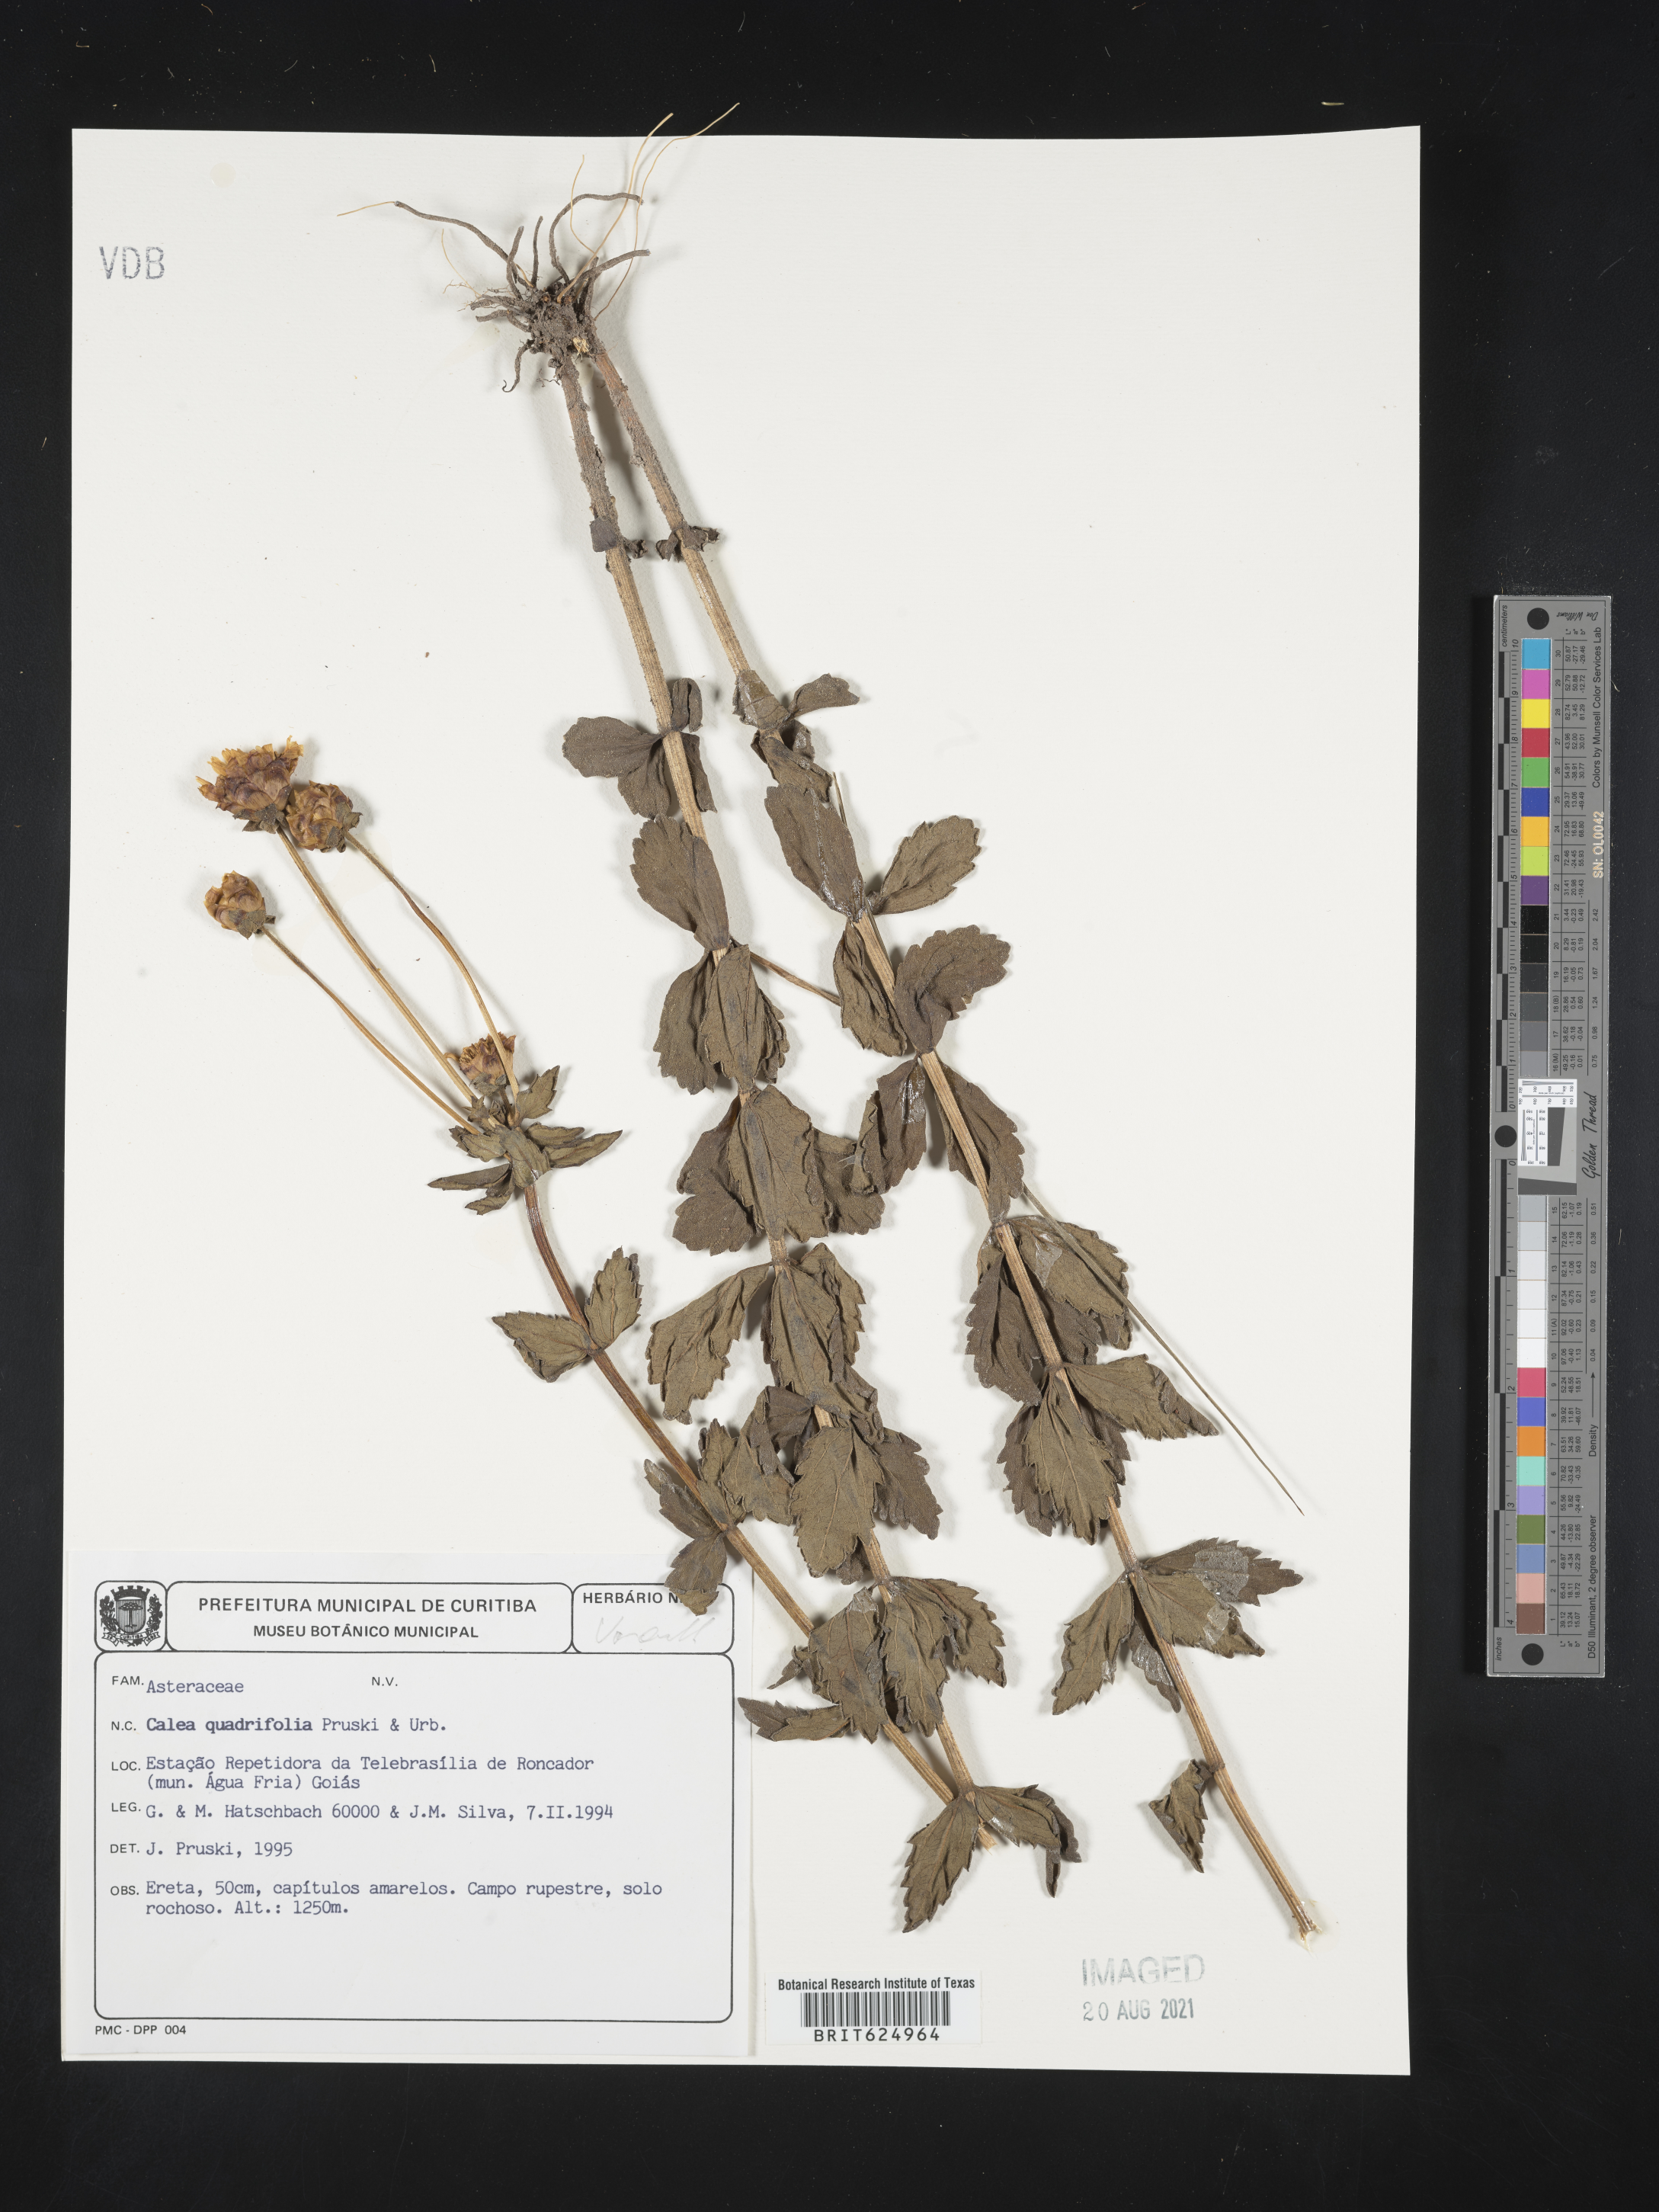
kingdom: Plantae
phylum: Tracheophyta
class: Magnoliopsida
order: Asterales
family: Asteraceae
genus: Calea
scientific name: Calea quadrifolia
